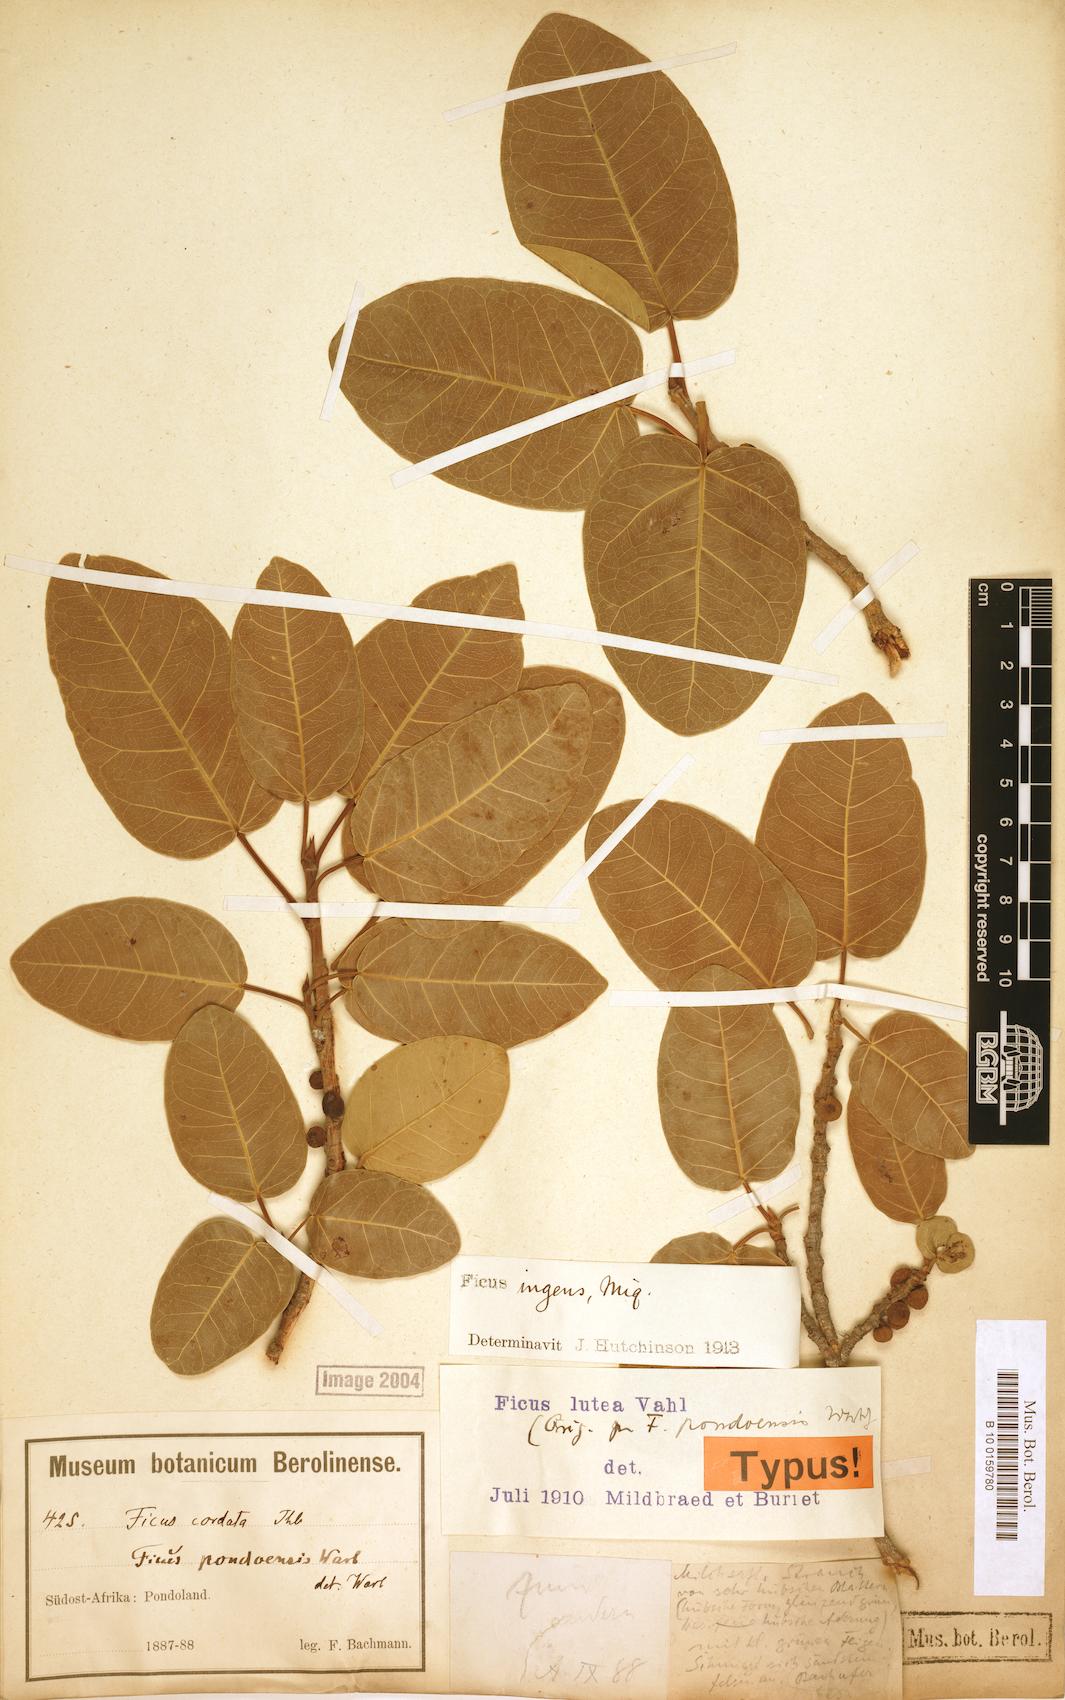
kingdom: Plantae
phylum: Tracheophyta
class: Magnoliopsida
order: Rosales
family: Moraceae
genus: Ficus
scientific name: Ficus ingens
